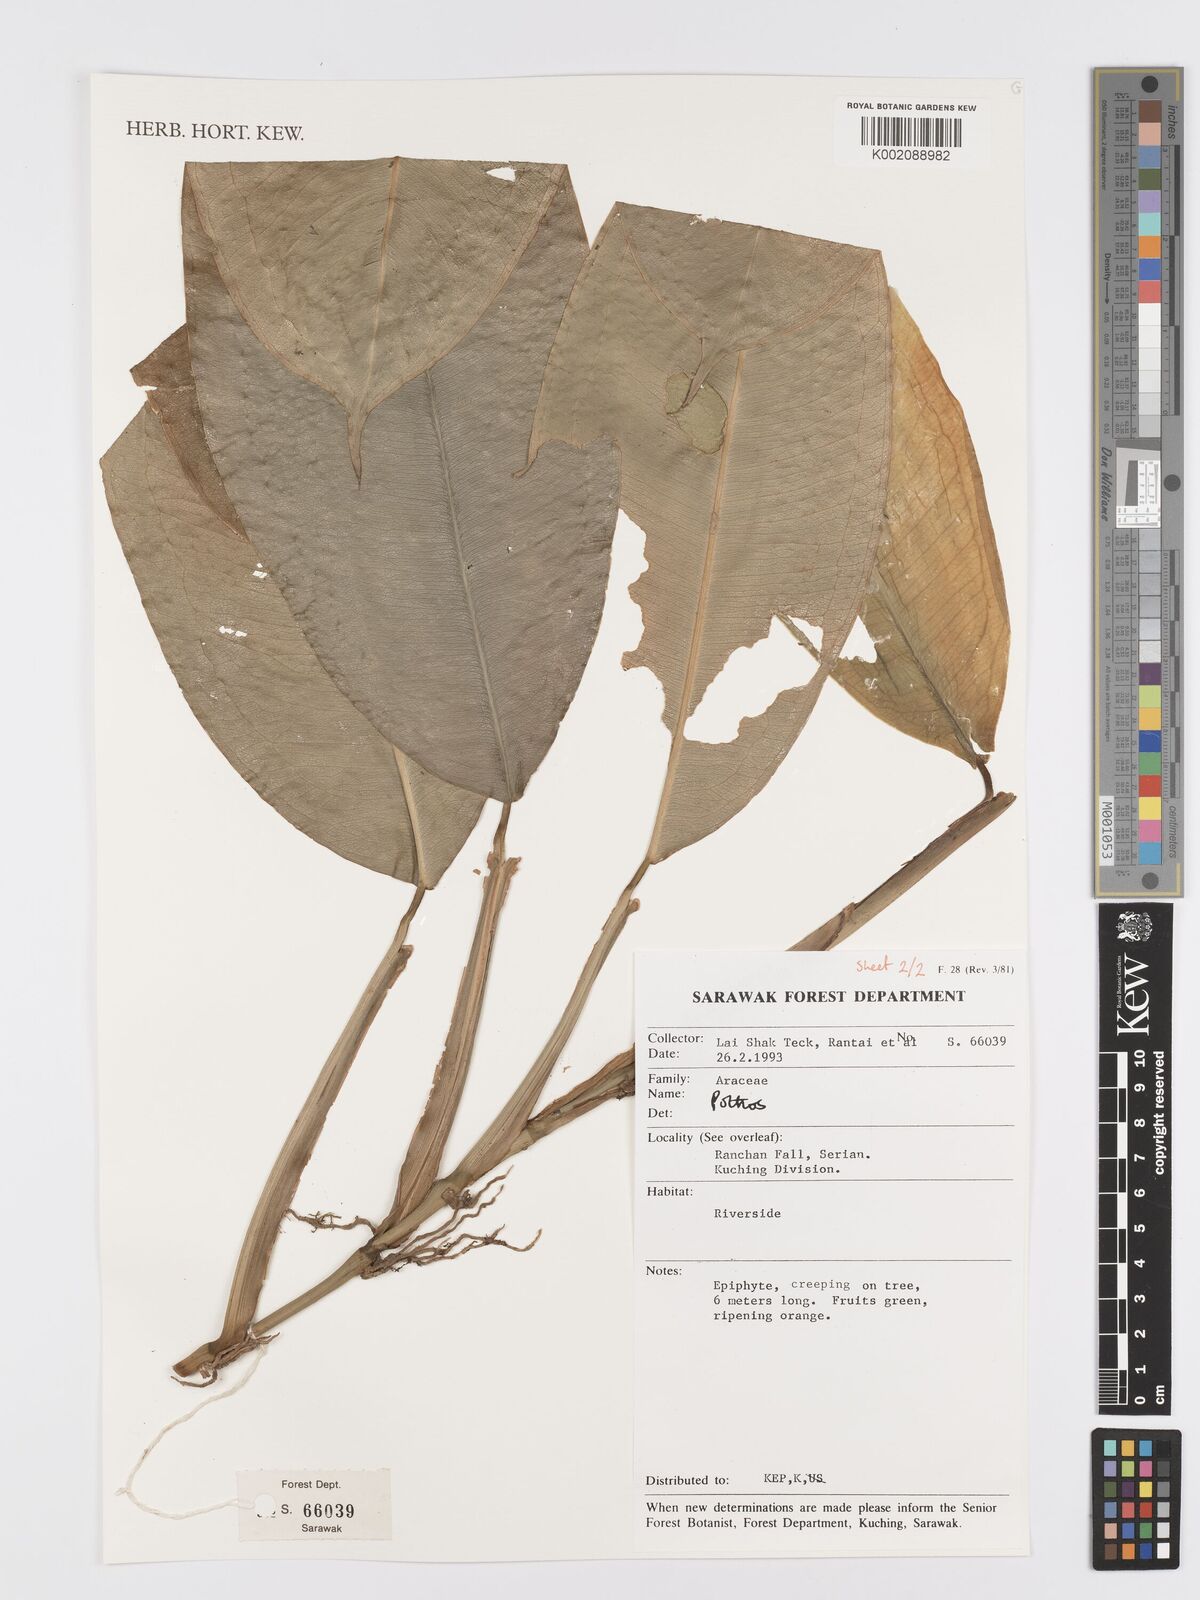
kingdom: Plantae
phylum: Tracheophyta
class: Liliopsida
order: Alismatales
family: Araceae
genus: Pothos
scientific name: Pothos
